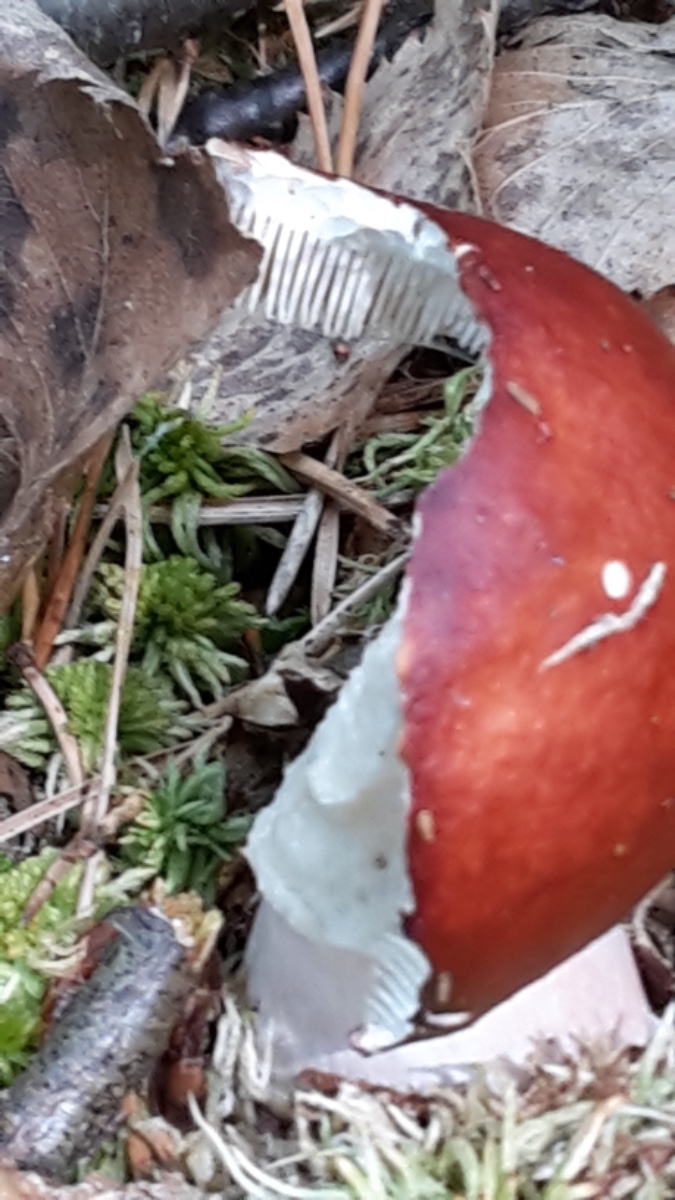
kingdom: Fungi
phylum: Basidiomycota
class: Agaricomycetes
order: Russulales
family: Russulaceae
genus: Russula
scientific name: Russula paludosa
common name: prægtig skørhat
